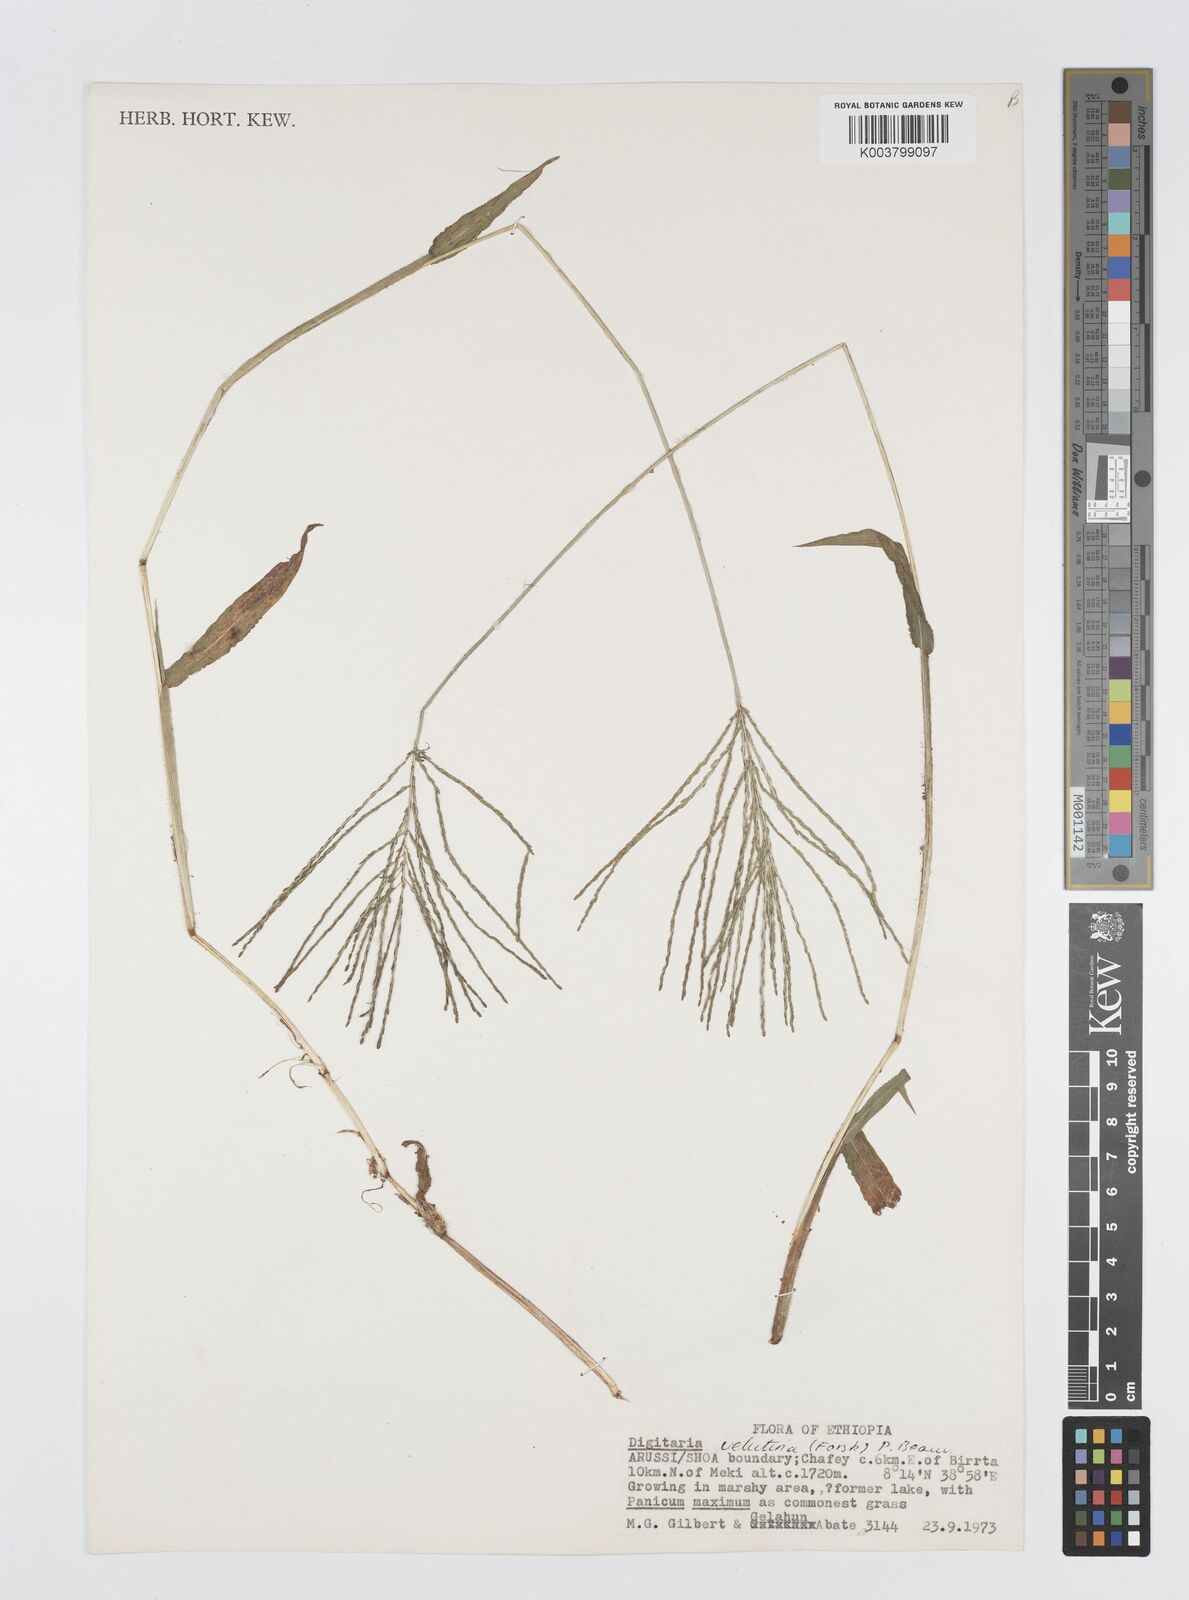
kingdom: Plantae
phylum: Tracheophyta
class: Liliopsida
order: Poales
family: Poaceae
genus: Digitaria
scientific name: Digitaria velutina
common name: Long-plume finger grass
